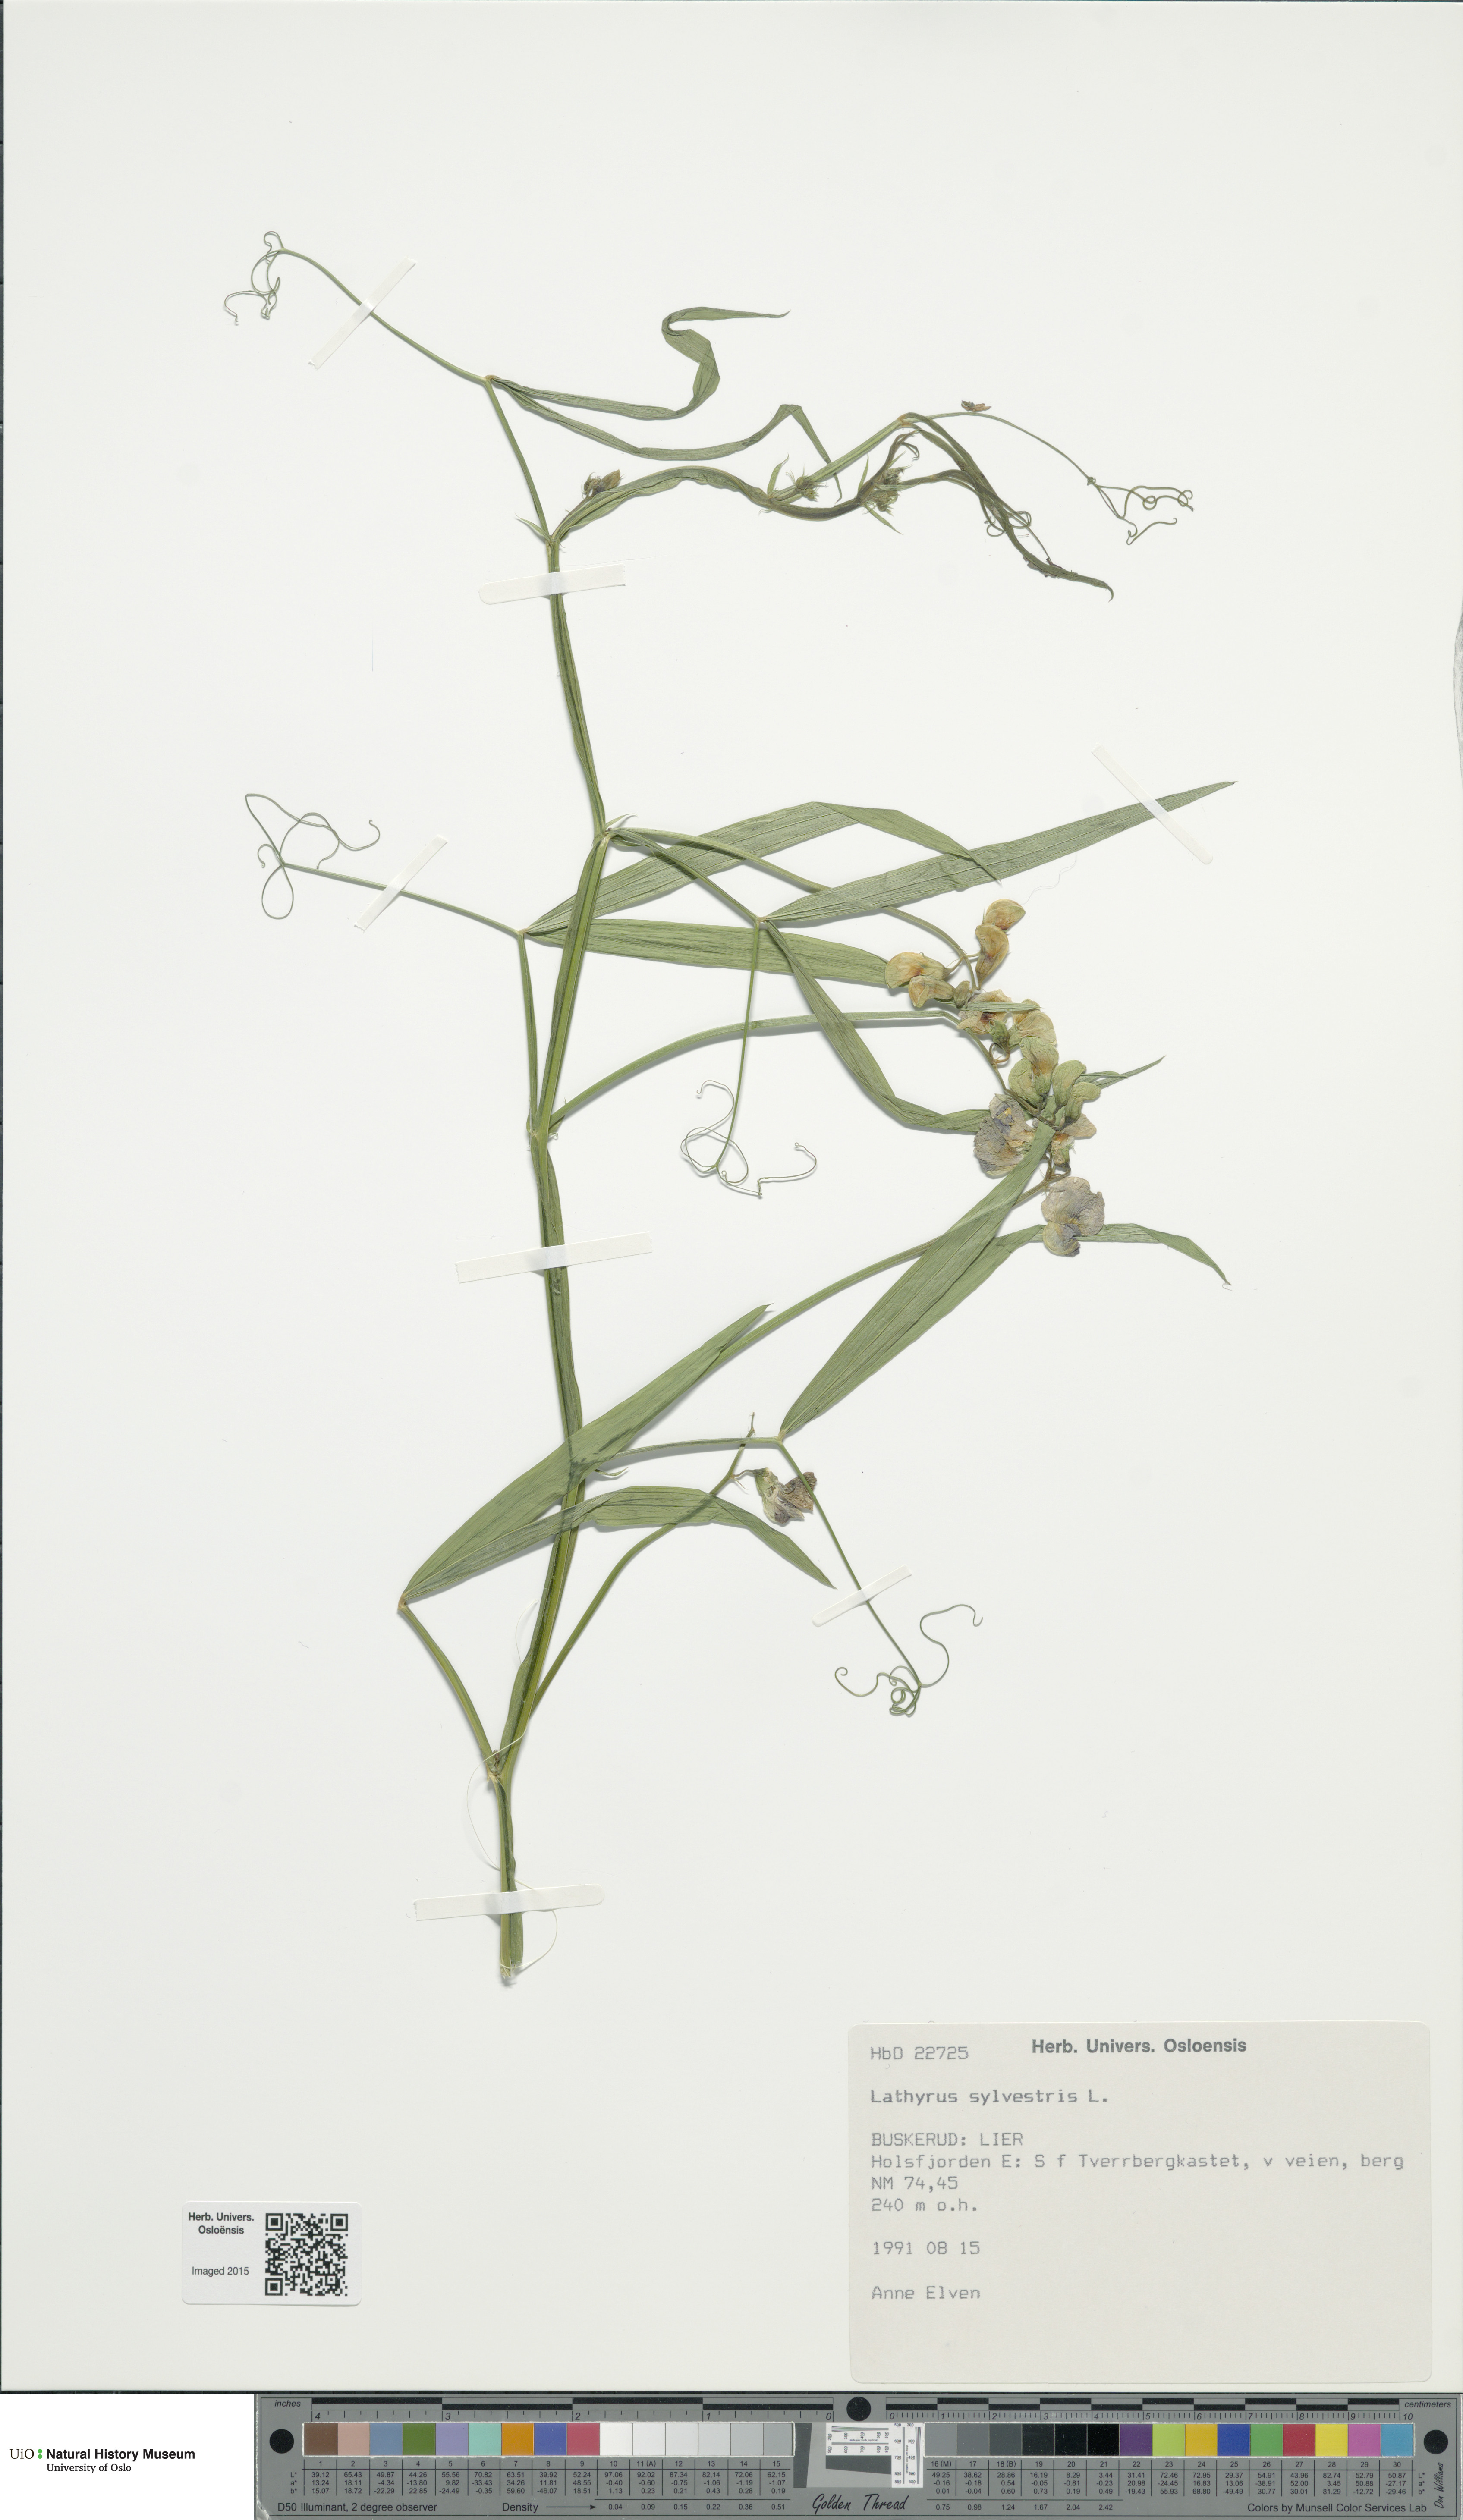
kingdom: Plantae
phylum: Tracheophyta
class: Magnoliopsida
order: Fabales
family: Fabaceae
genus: Lathyrus
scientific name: Lathyrus sylvestris
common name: Flat pea
